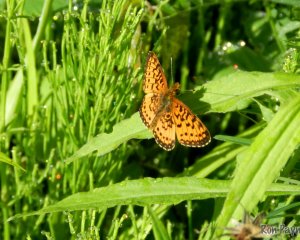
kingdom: Animalia
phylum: Arthropoda
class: Insecta
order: Lepidoptera
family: Nymphalidae
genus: Boloria
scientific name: Boloria selene
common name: Silver-bordered Fritillary
